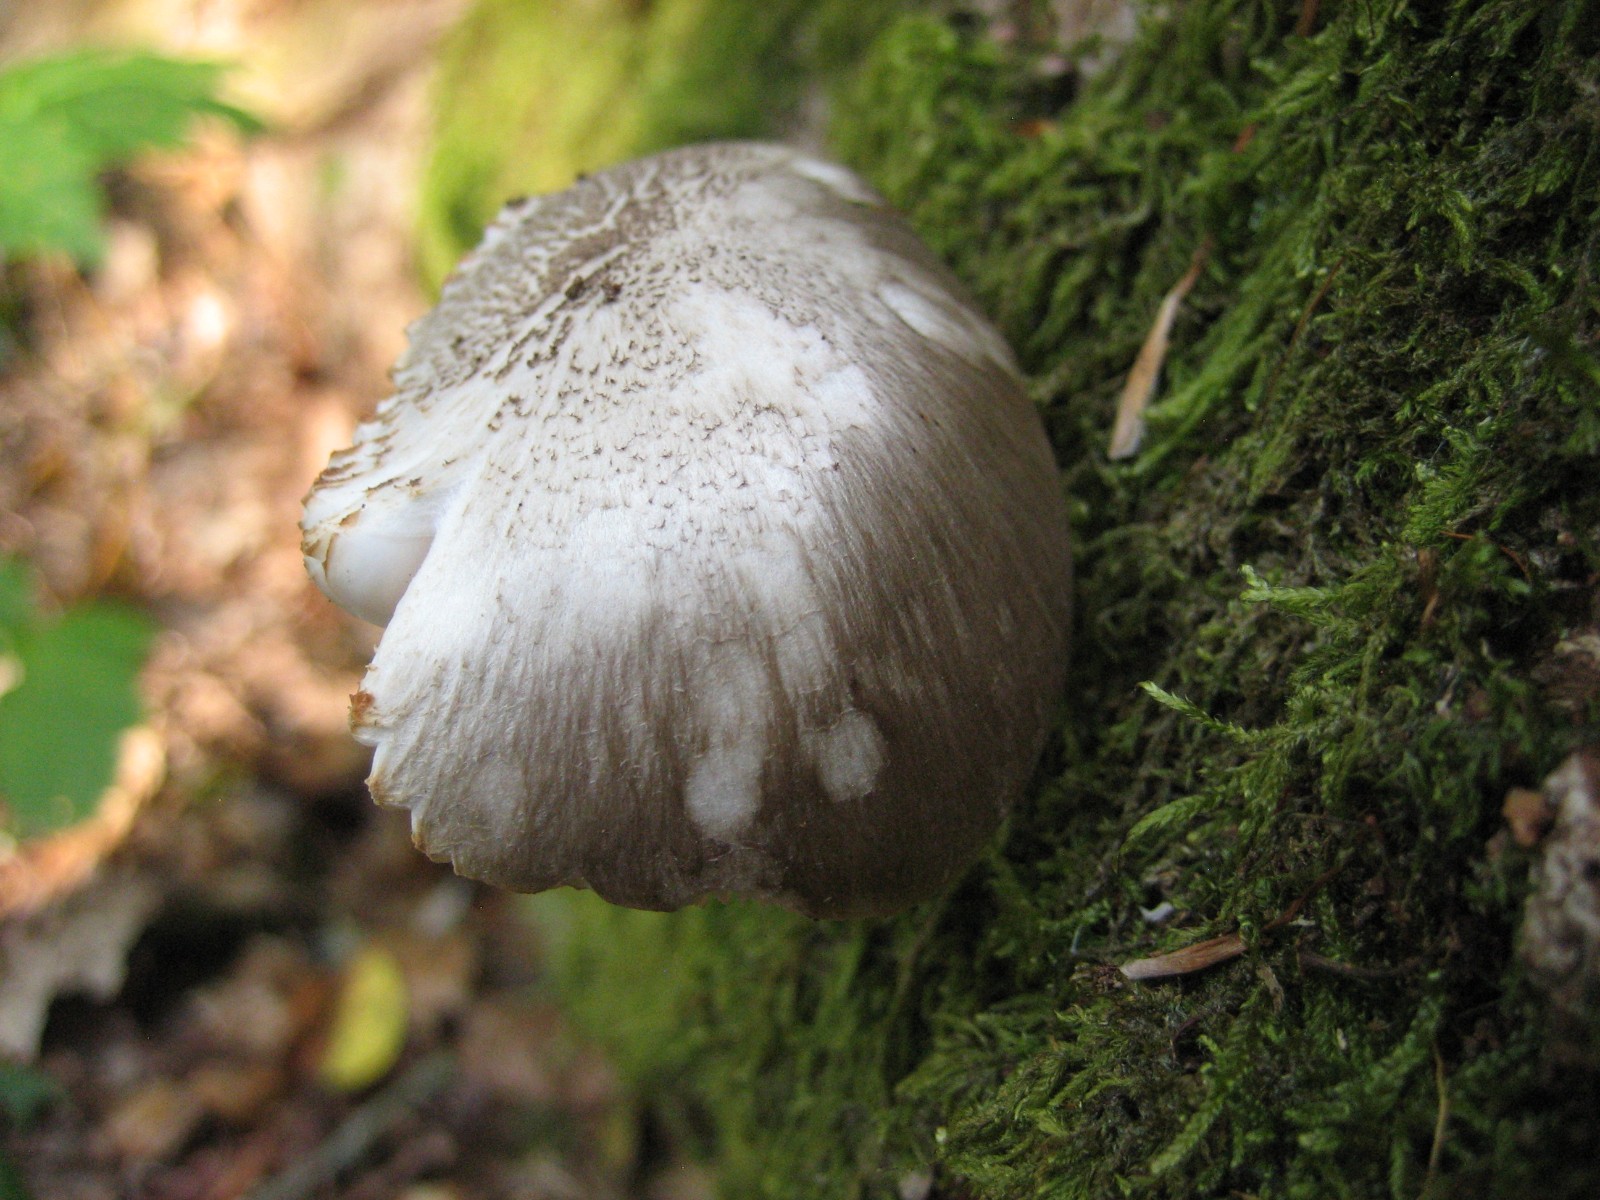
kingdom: Fungi
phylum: Basidiomycota
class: Agaricomycetes
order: Agaricales
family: Pluteaceae
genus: Pluteus
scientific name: Pluteus cervinus
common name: sodfarvet skærmhat
